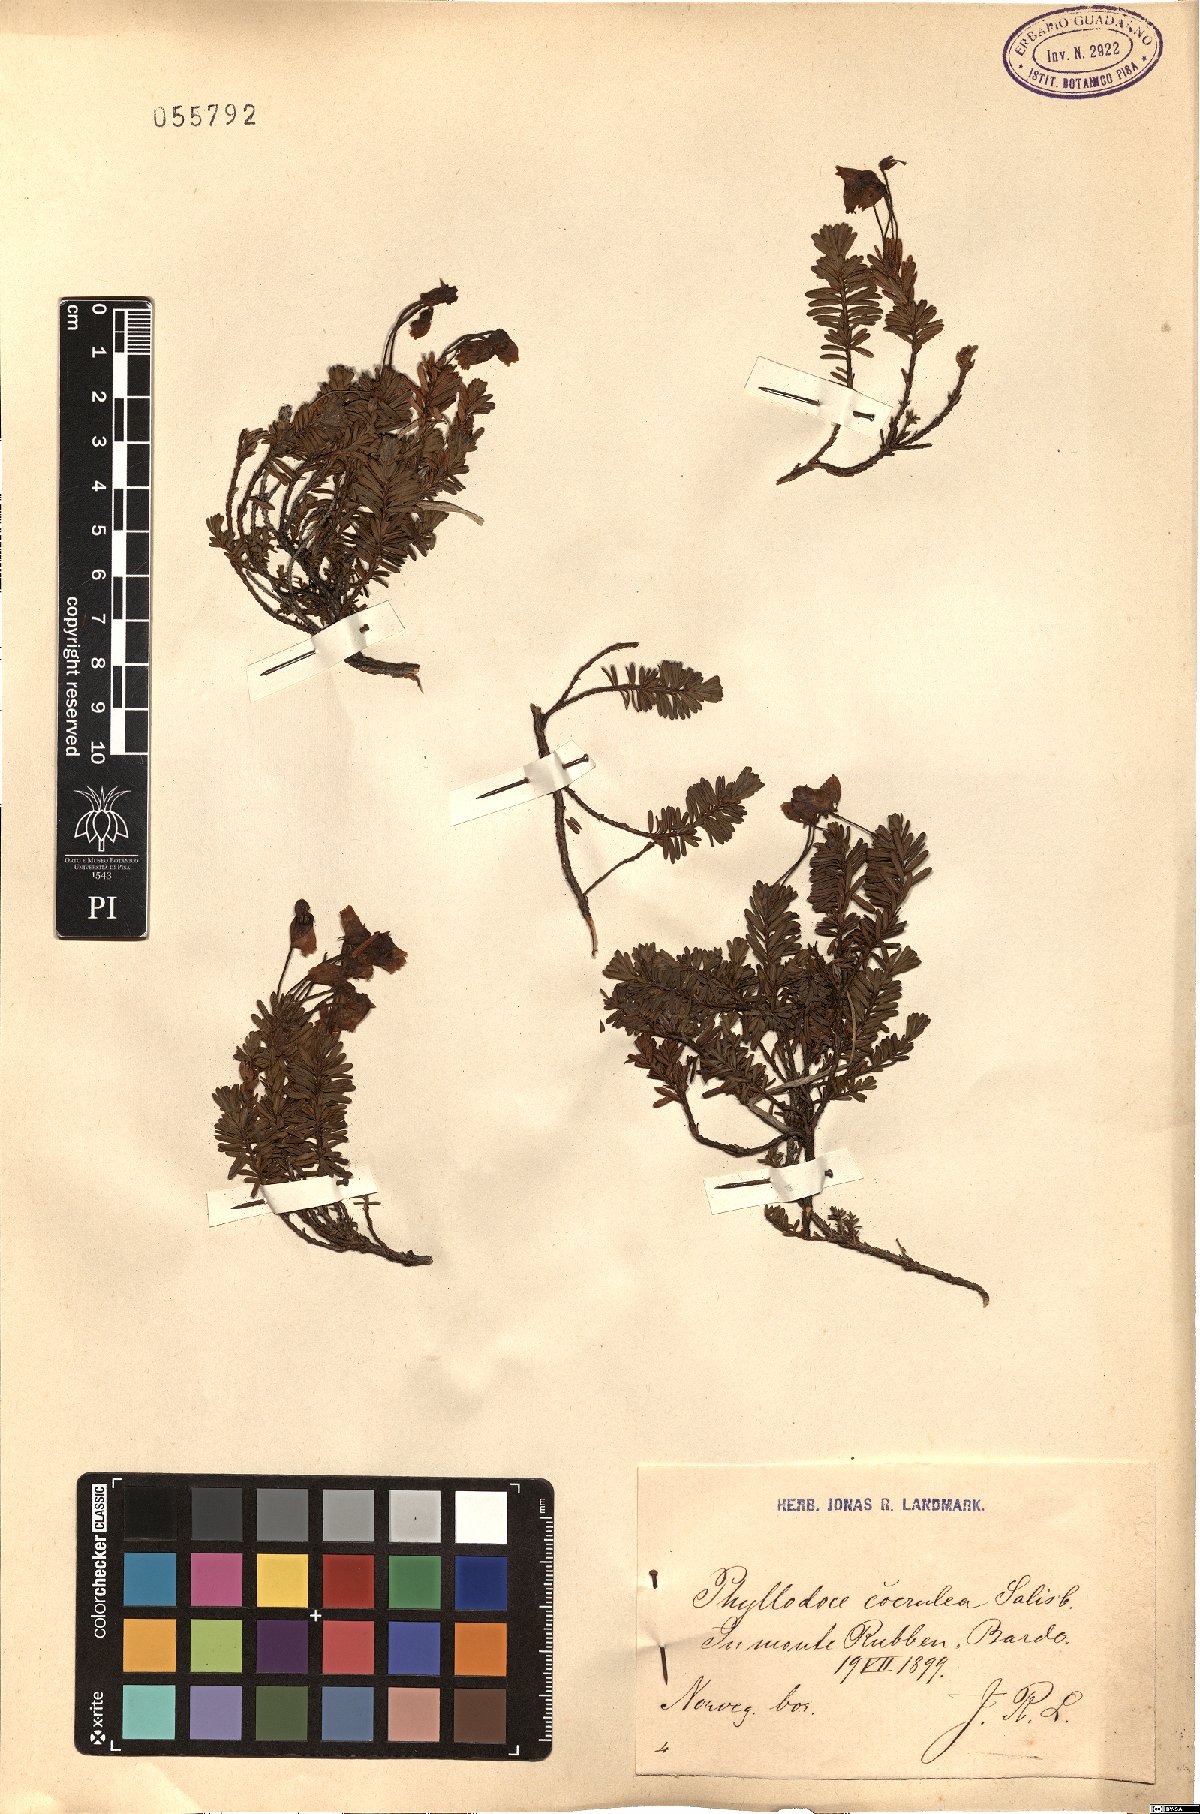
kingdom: Plantae
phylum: Tracheophyta
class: Magnoliopsida
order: Ericales
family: Ericaceae
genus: Phyllodoce
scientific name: Phyllodoce caerulea
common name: Blue heath
